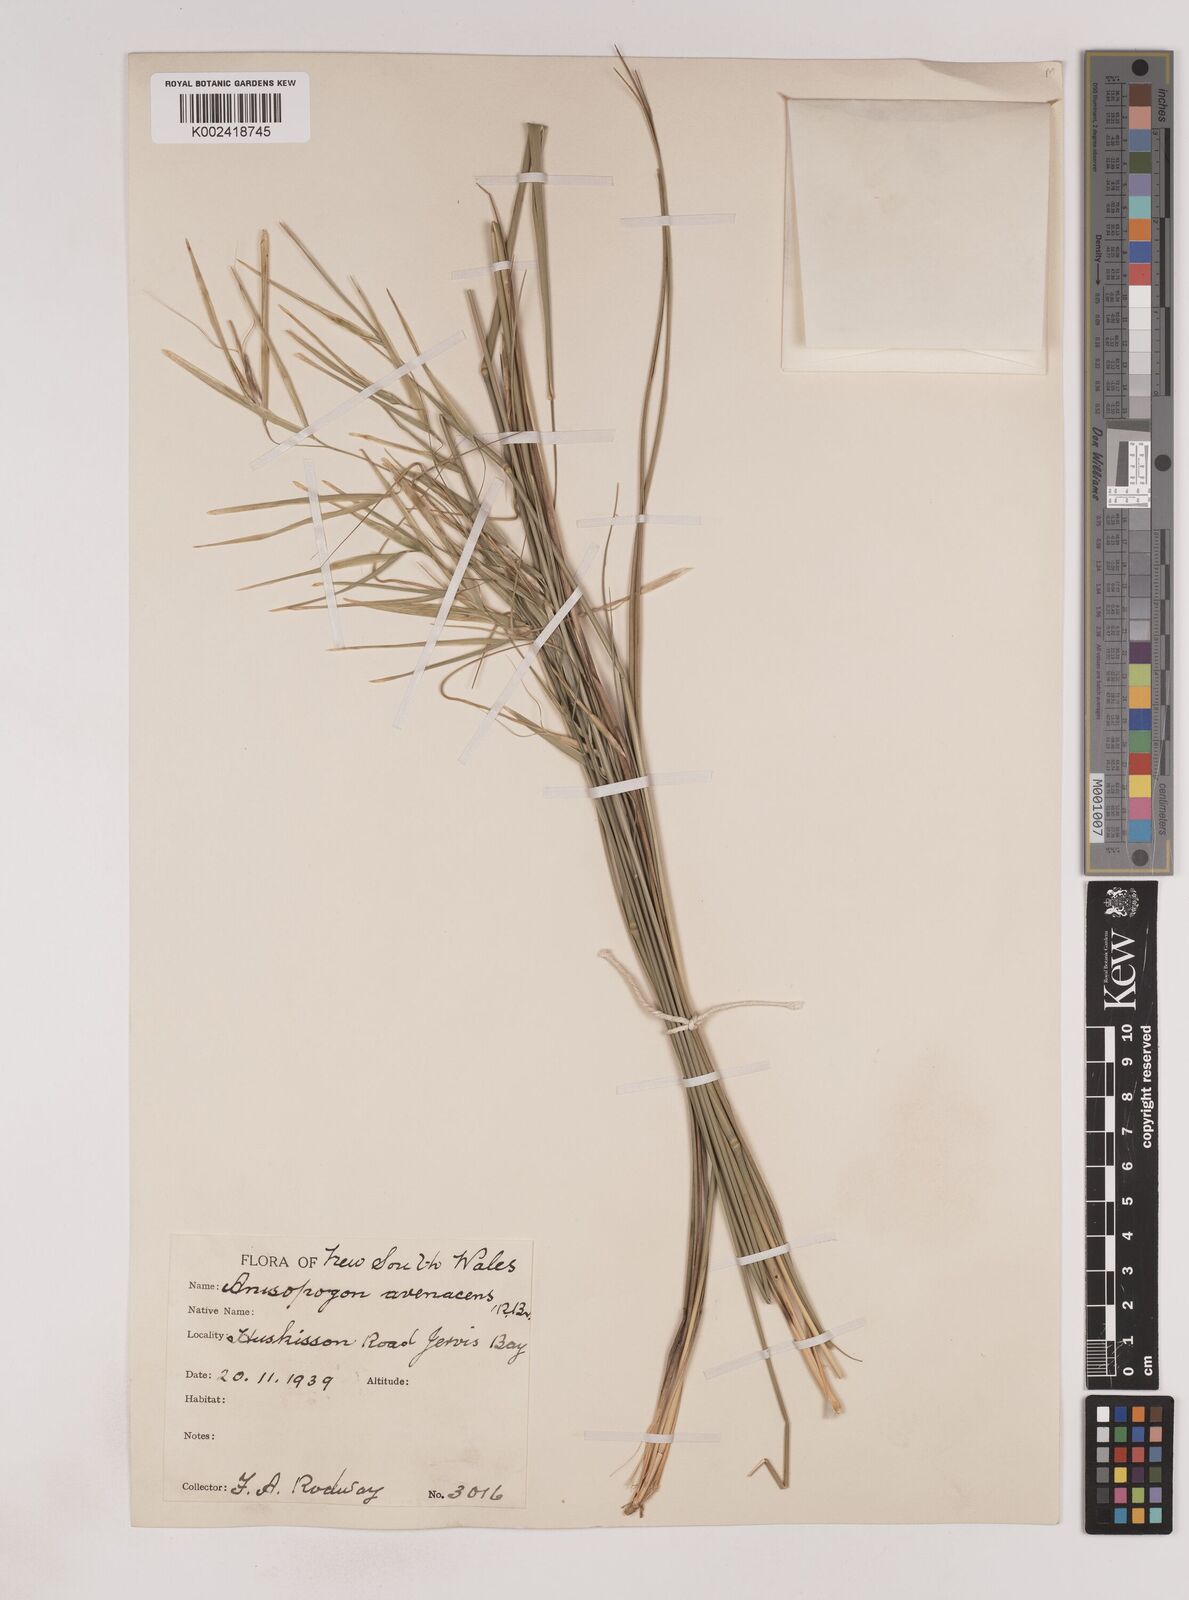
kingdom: Plantae
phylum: Tracheophyta
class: Liliopsida
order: Poales
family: Poaceae
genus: Anisopogon
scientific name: Anisopogon avenaceus
